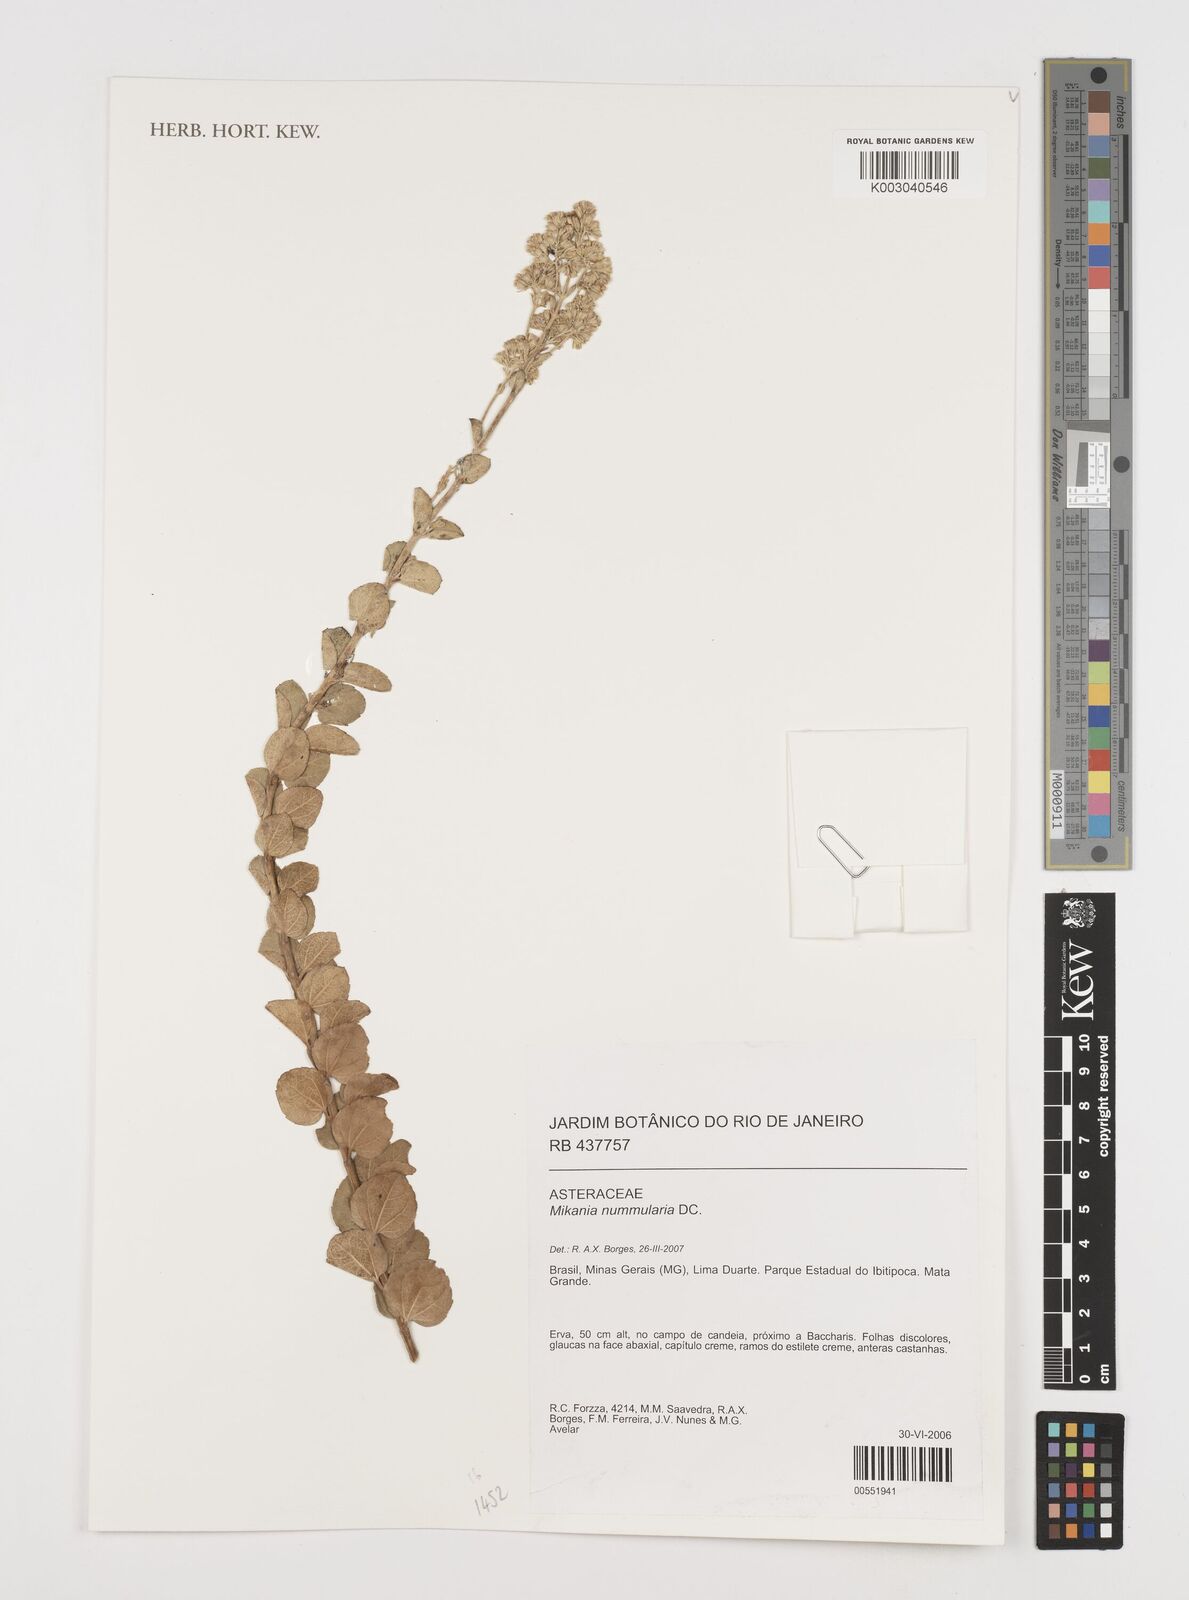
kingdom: Plantae
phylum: Tracheophyta
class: Magnoliopsida
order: Asterales
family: Asteraceae
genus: Mikania
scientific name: Mikania nummularia
